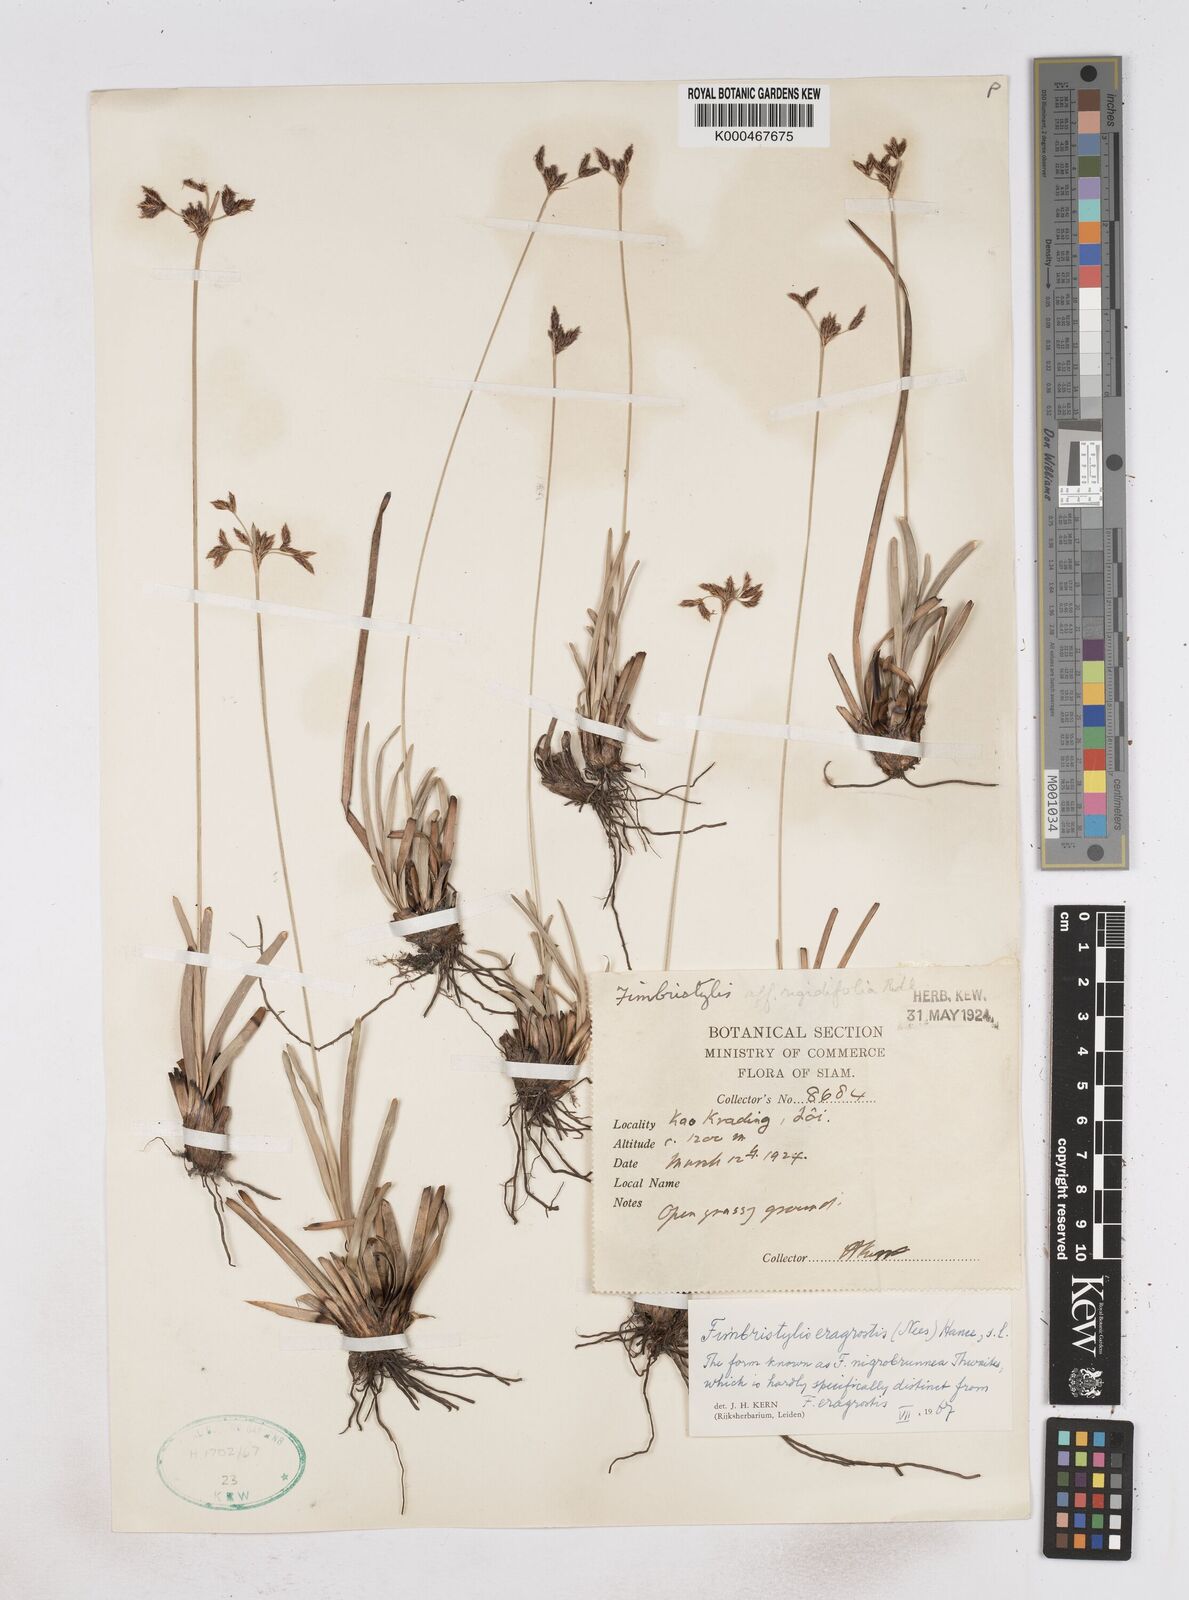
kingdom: Plantae
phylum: Tracheophyta
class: Liliopsida
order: Poales
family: Cyperaceae
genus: Fimbristylis
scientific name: Fimbristylis eragrostis
